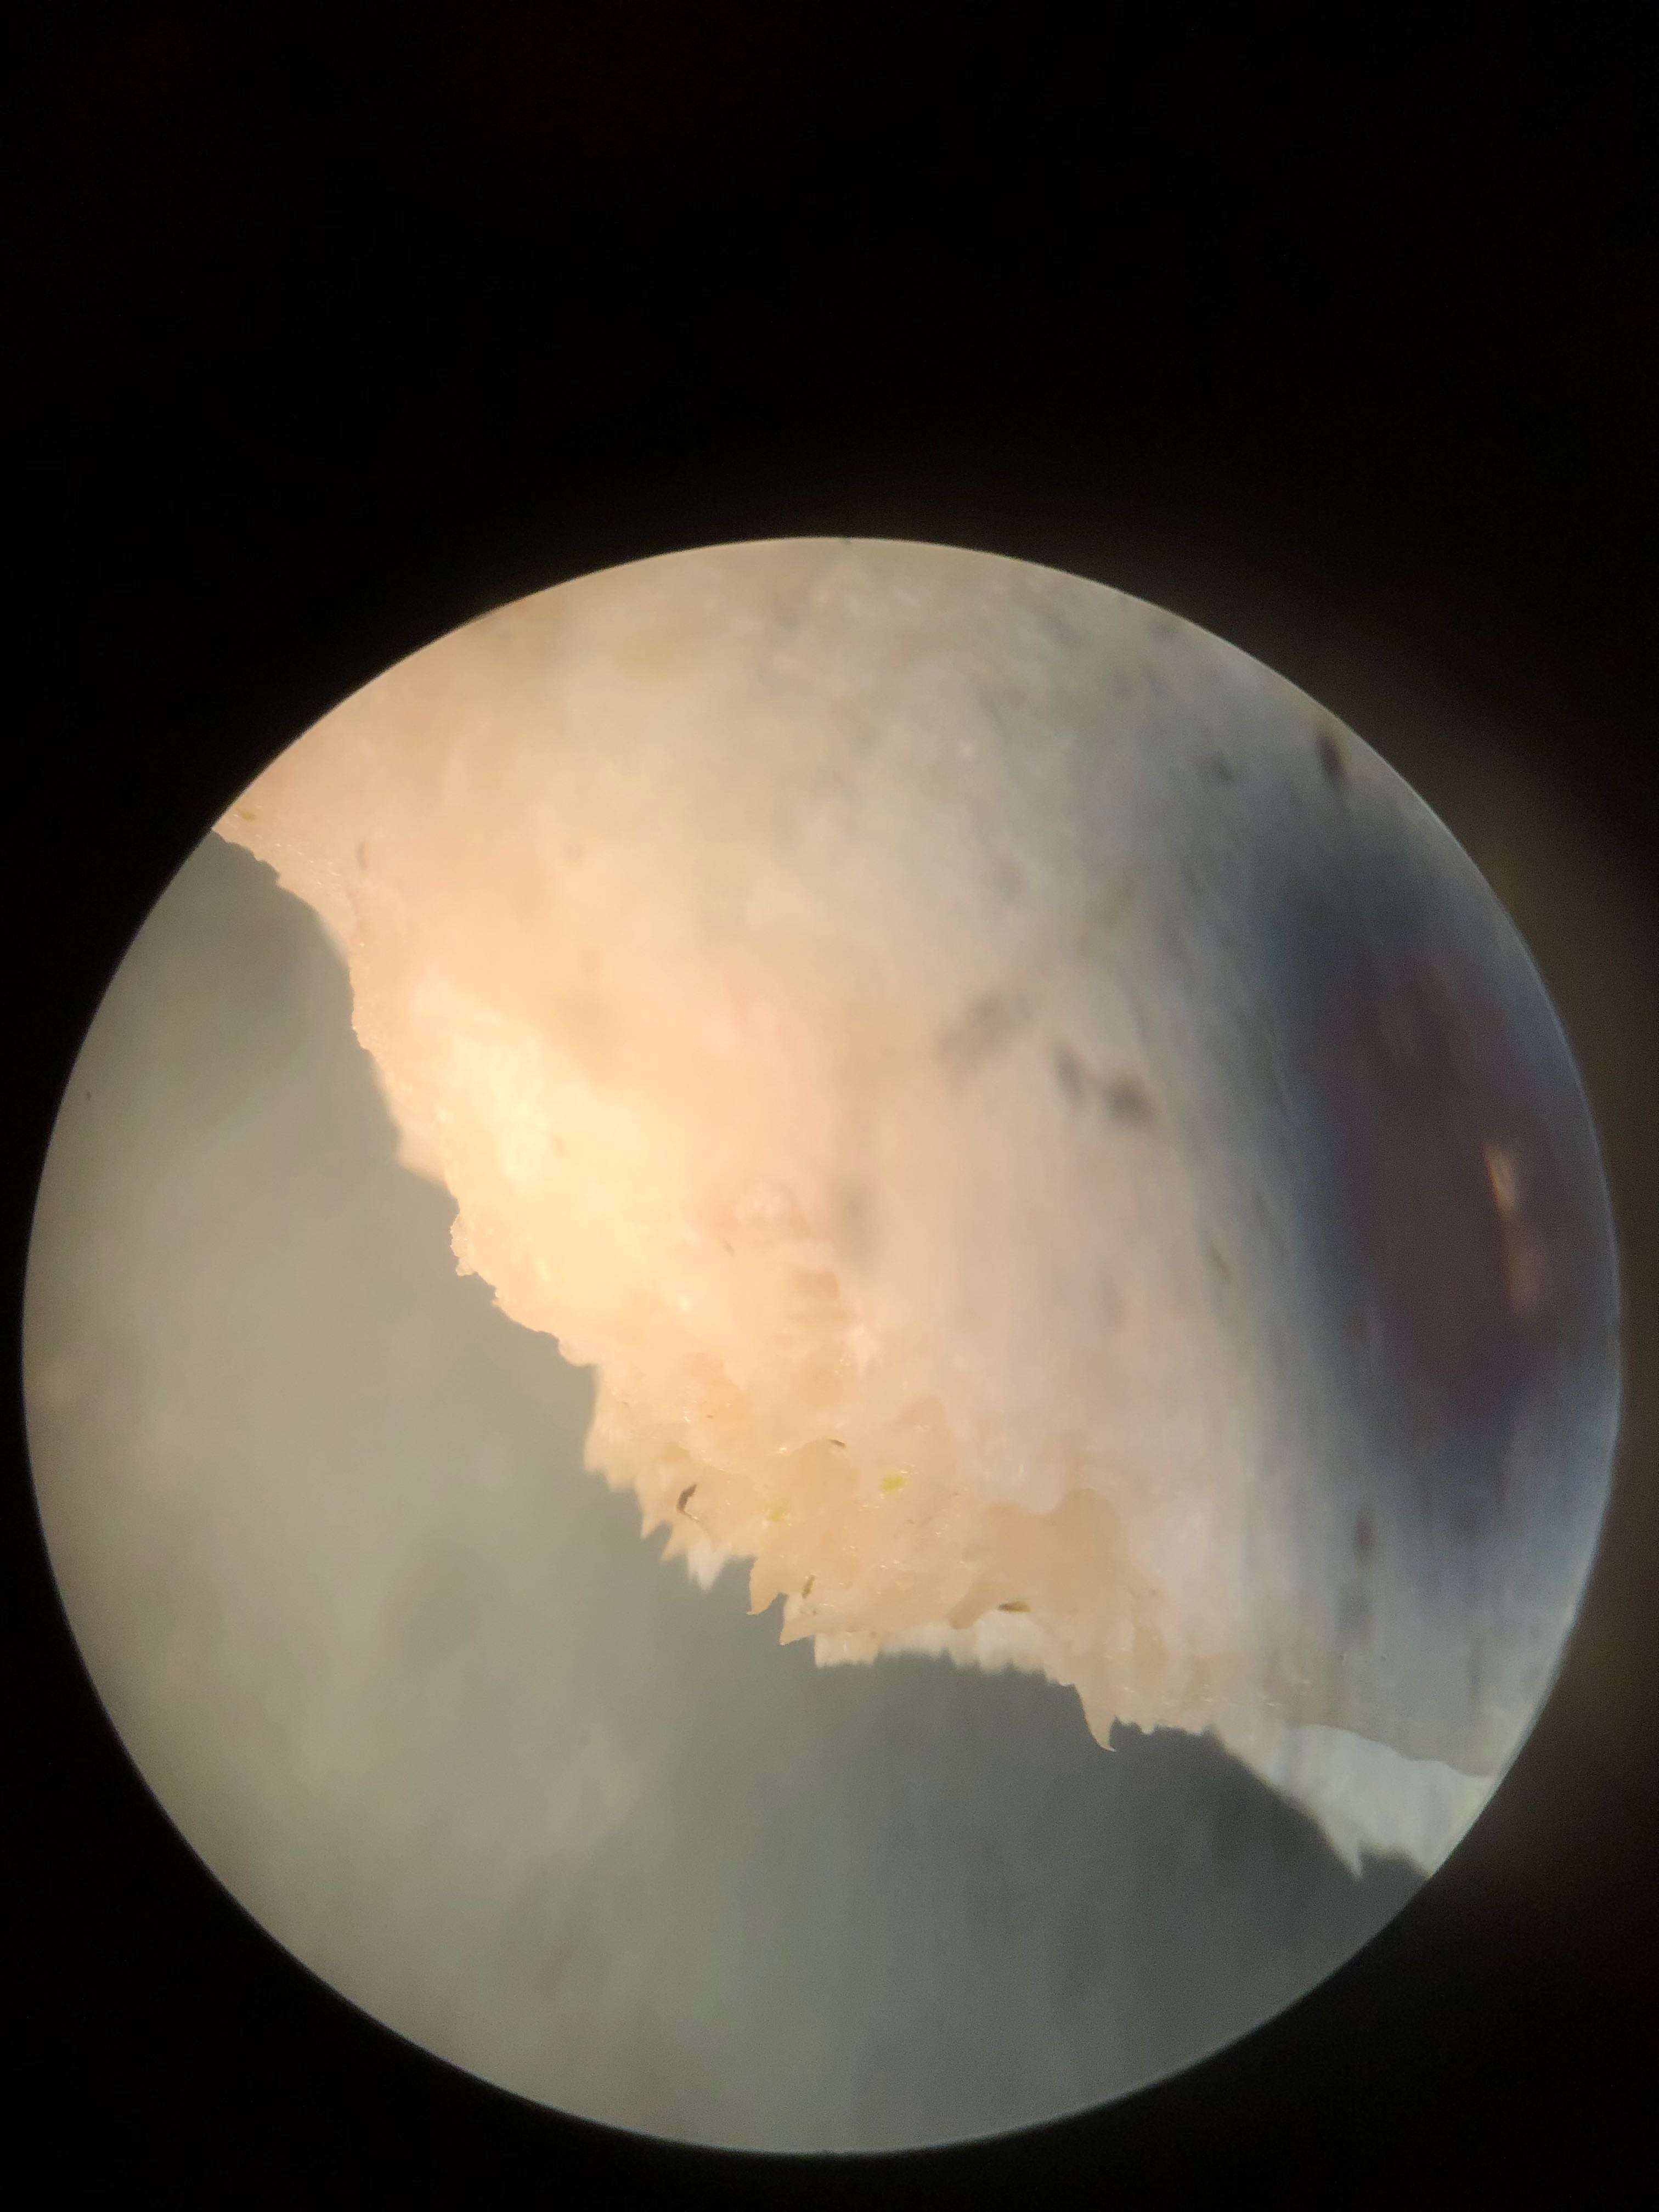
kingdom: Fungi
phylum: Basidiomycota
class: Agaricomycetes
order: Polyporales
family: Incrustoporiaceae
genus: Tyromyces
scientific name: Tyromyces lacteus
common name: mælkehvid kødporesvamp
